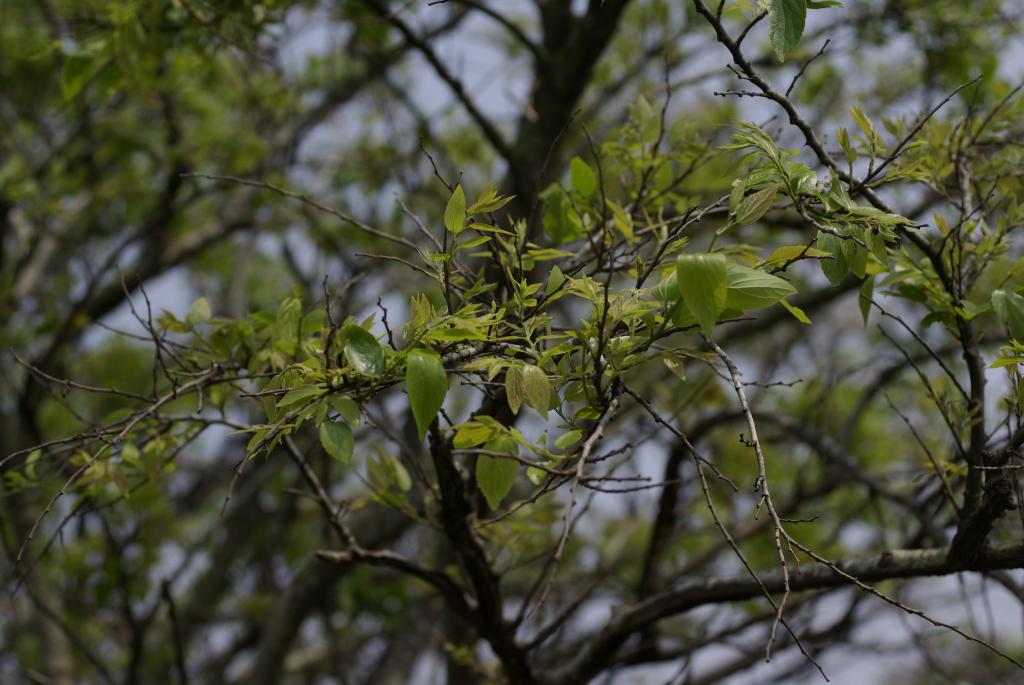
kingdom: Plantae
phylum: Tracheophyta
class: Magnoliopsida
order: Rosales
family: Cannabaceae
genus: Celtis
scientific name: Celtis sinensis
